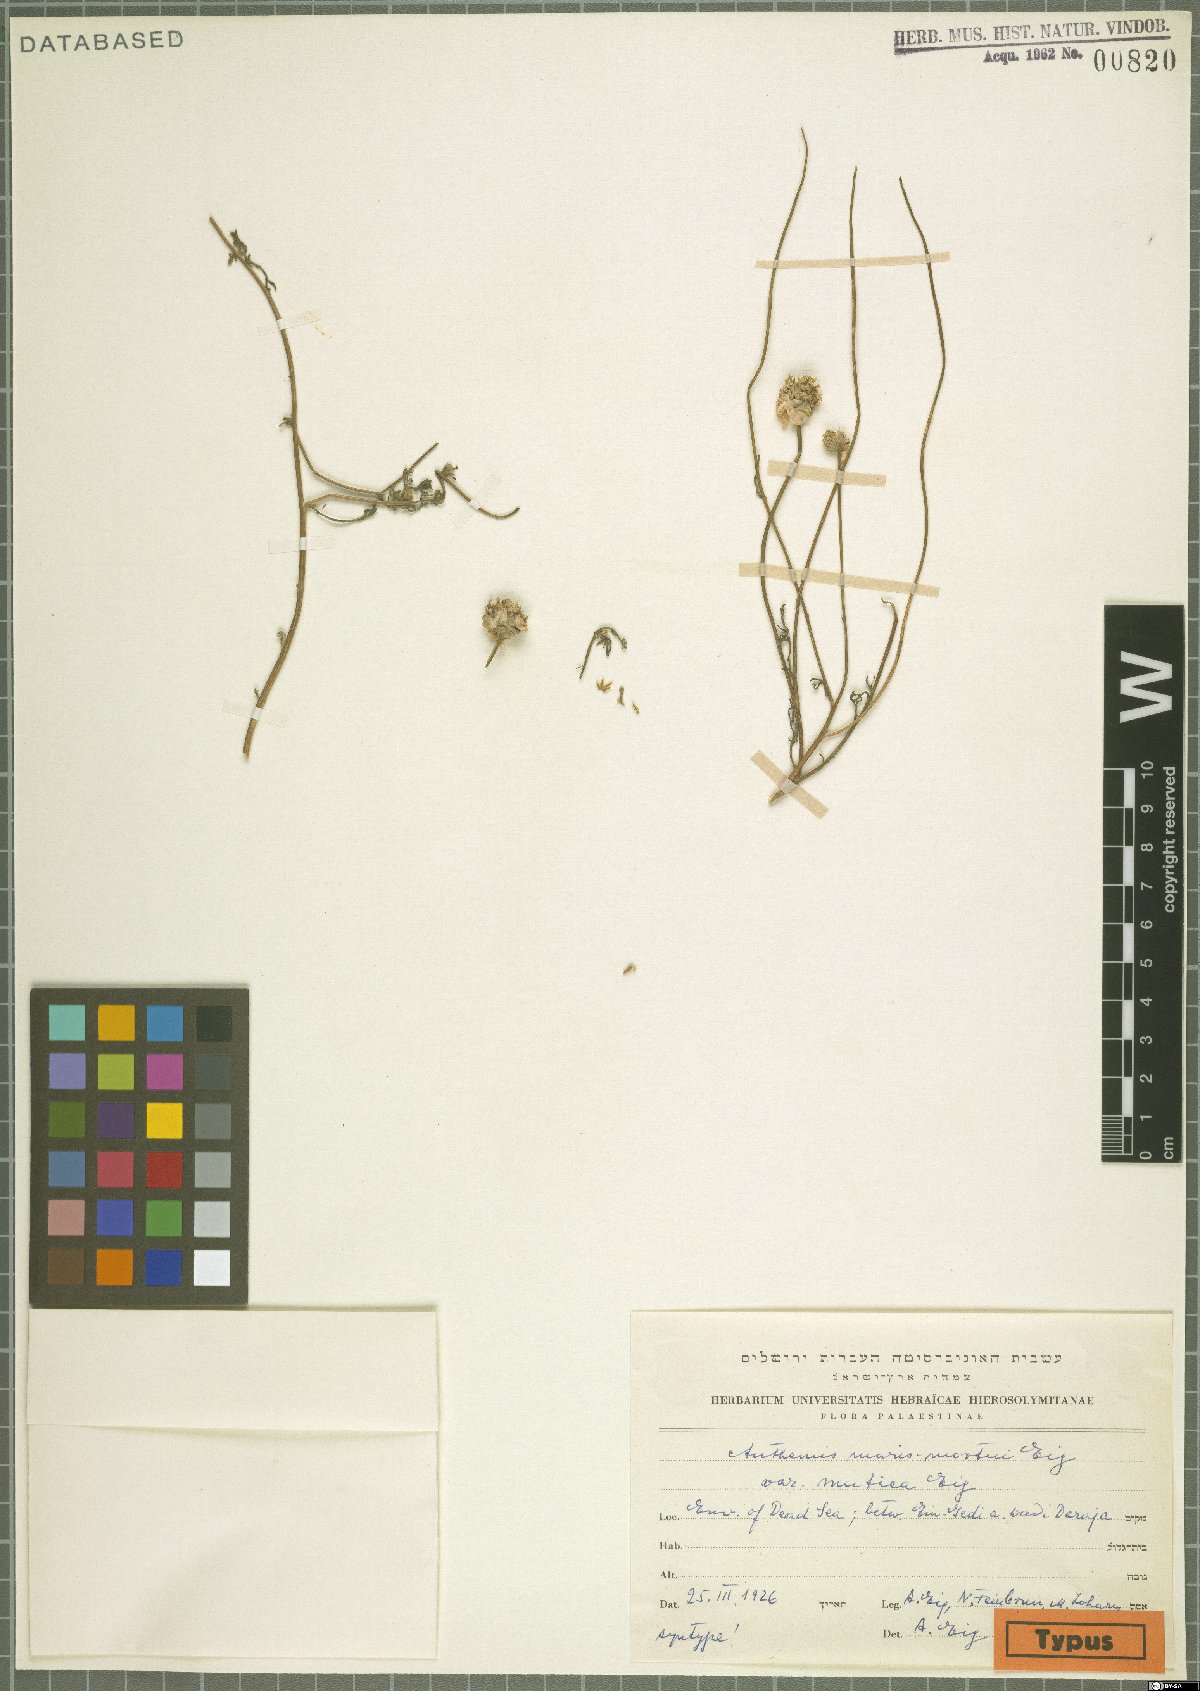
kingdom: Plantae
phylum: Tracheophyta
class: Magnoliopsida
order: Asterales
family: Asteraceae
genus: Anthemis
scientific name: Anthemis maris-mortui
